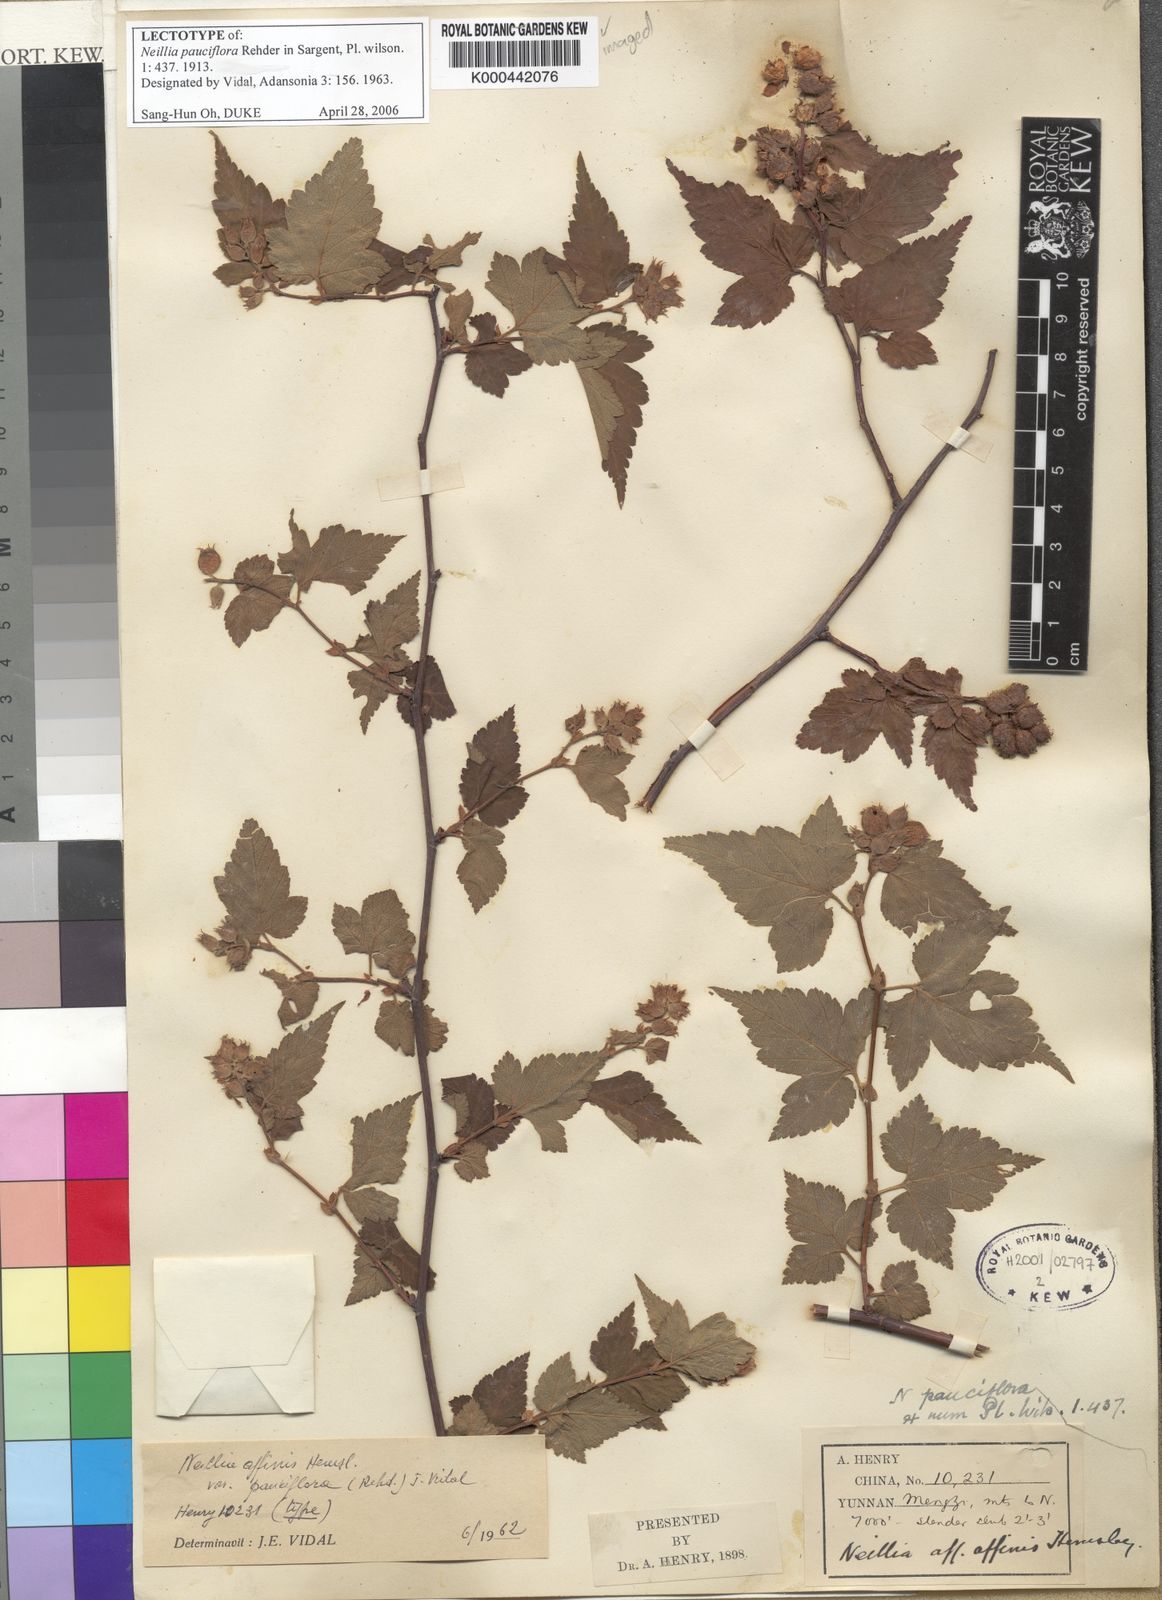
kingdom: Plantae
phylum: Tracheophyta
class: Magnoliopsida
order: Rosales
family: Rosaceae
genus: Neillia
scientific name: Neillia affinis
